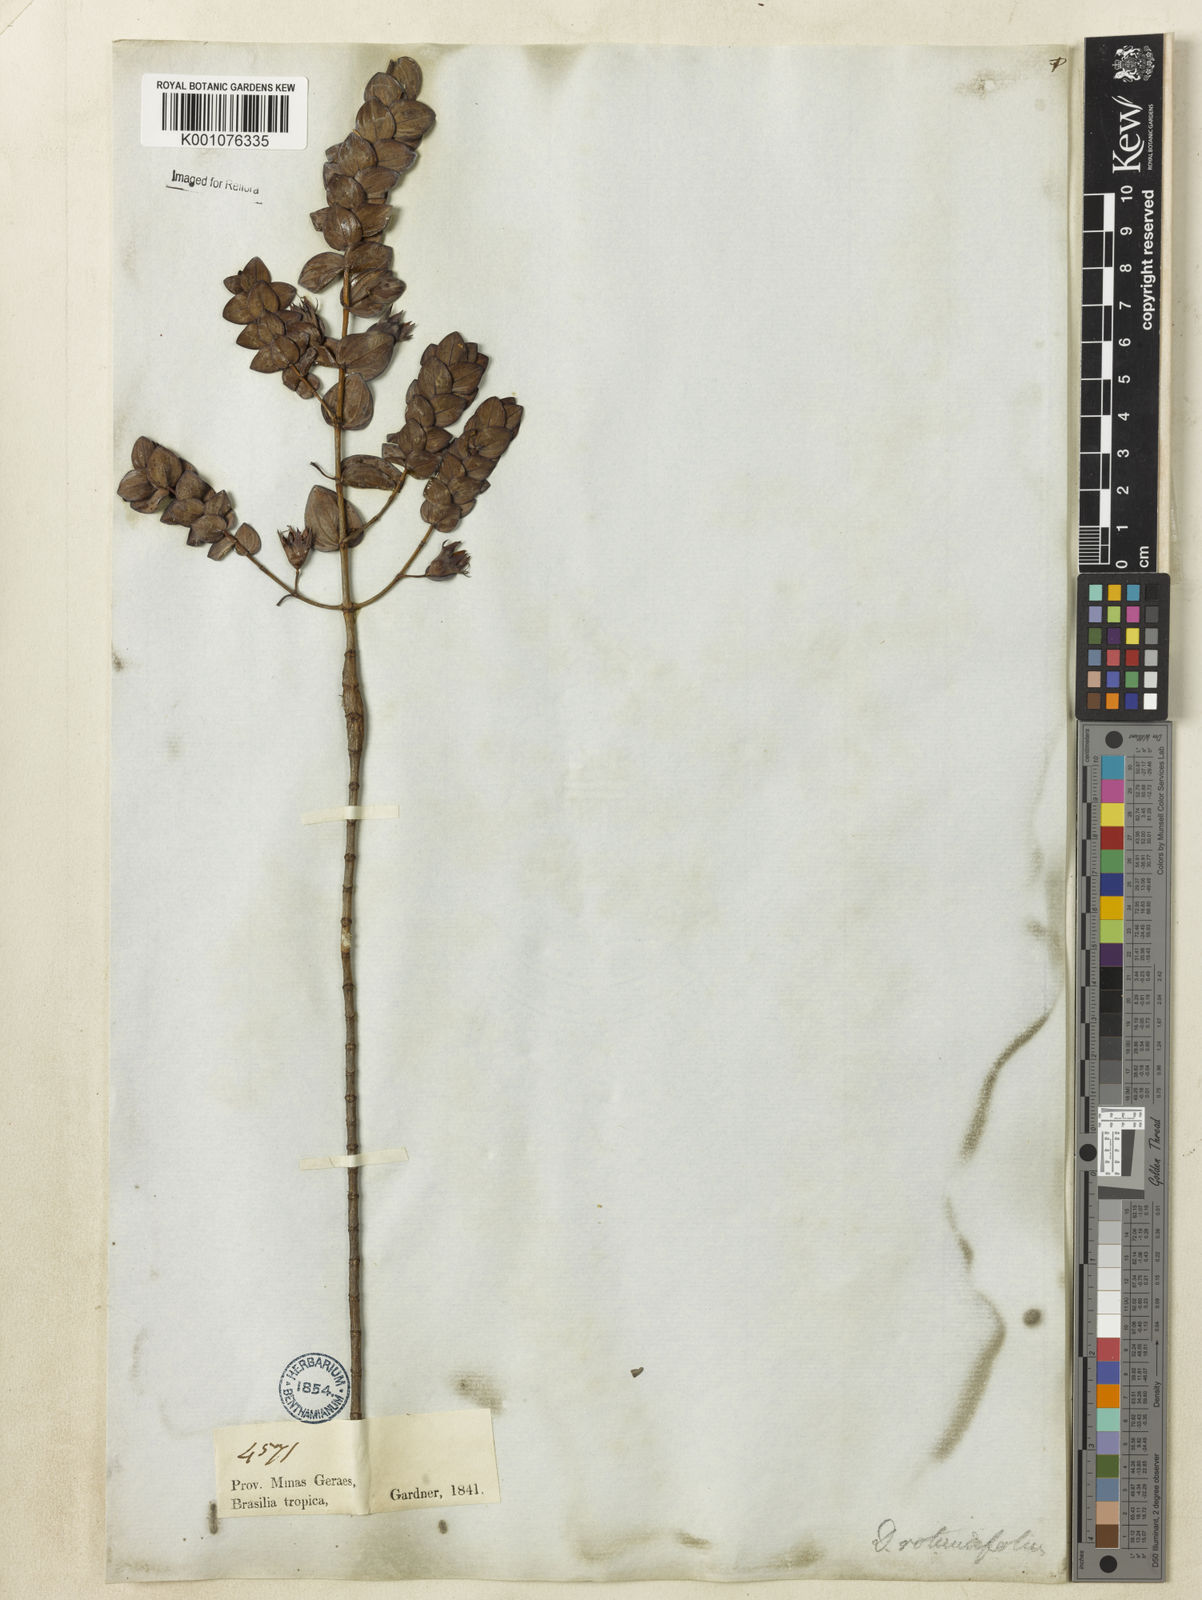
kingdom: Plantae
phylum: Tracheophyta
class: Magnoliopsida
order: Myrtales
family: Lythraceae
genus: Diplusodon
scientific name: Diplusodon rotundifolius
